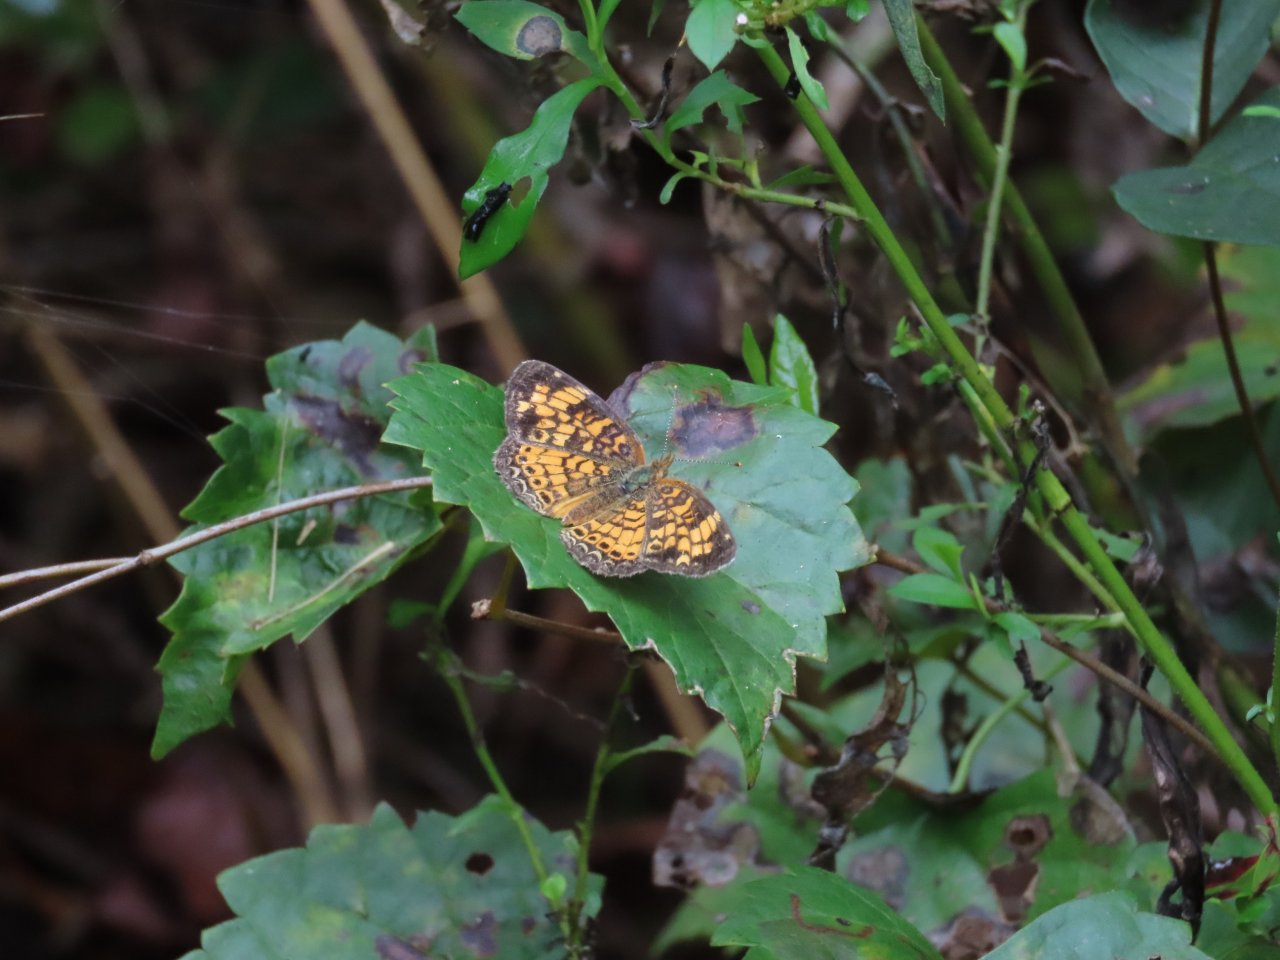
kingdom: Animalia
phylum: Arthropoda
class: Insecta
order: Lepidoptera
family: Nymphalidae
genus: Phyciodes
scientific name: Phyciodes tharos
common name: Pearl Crescent
